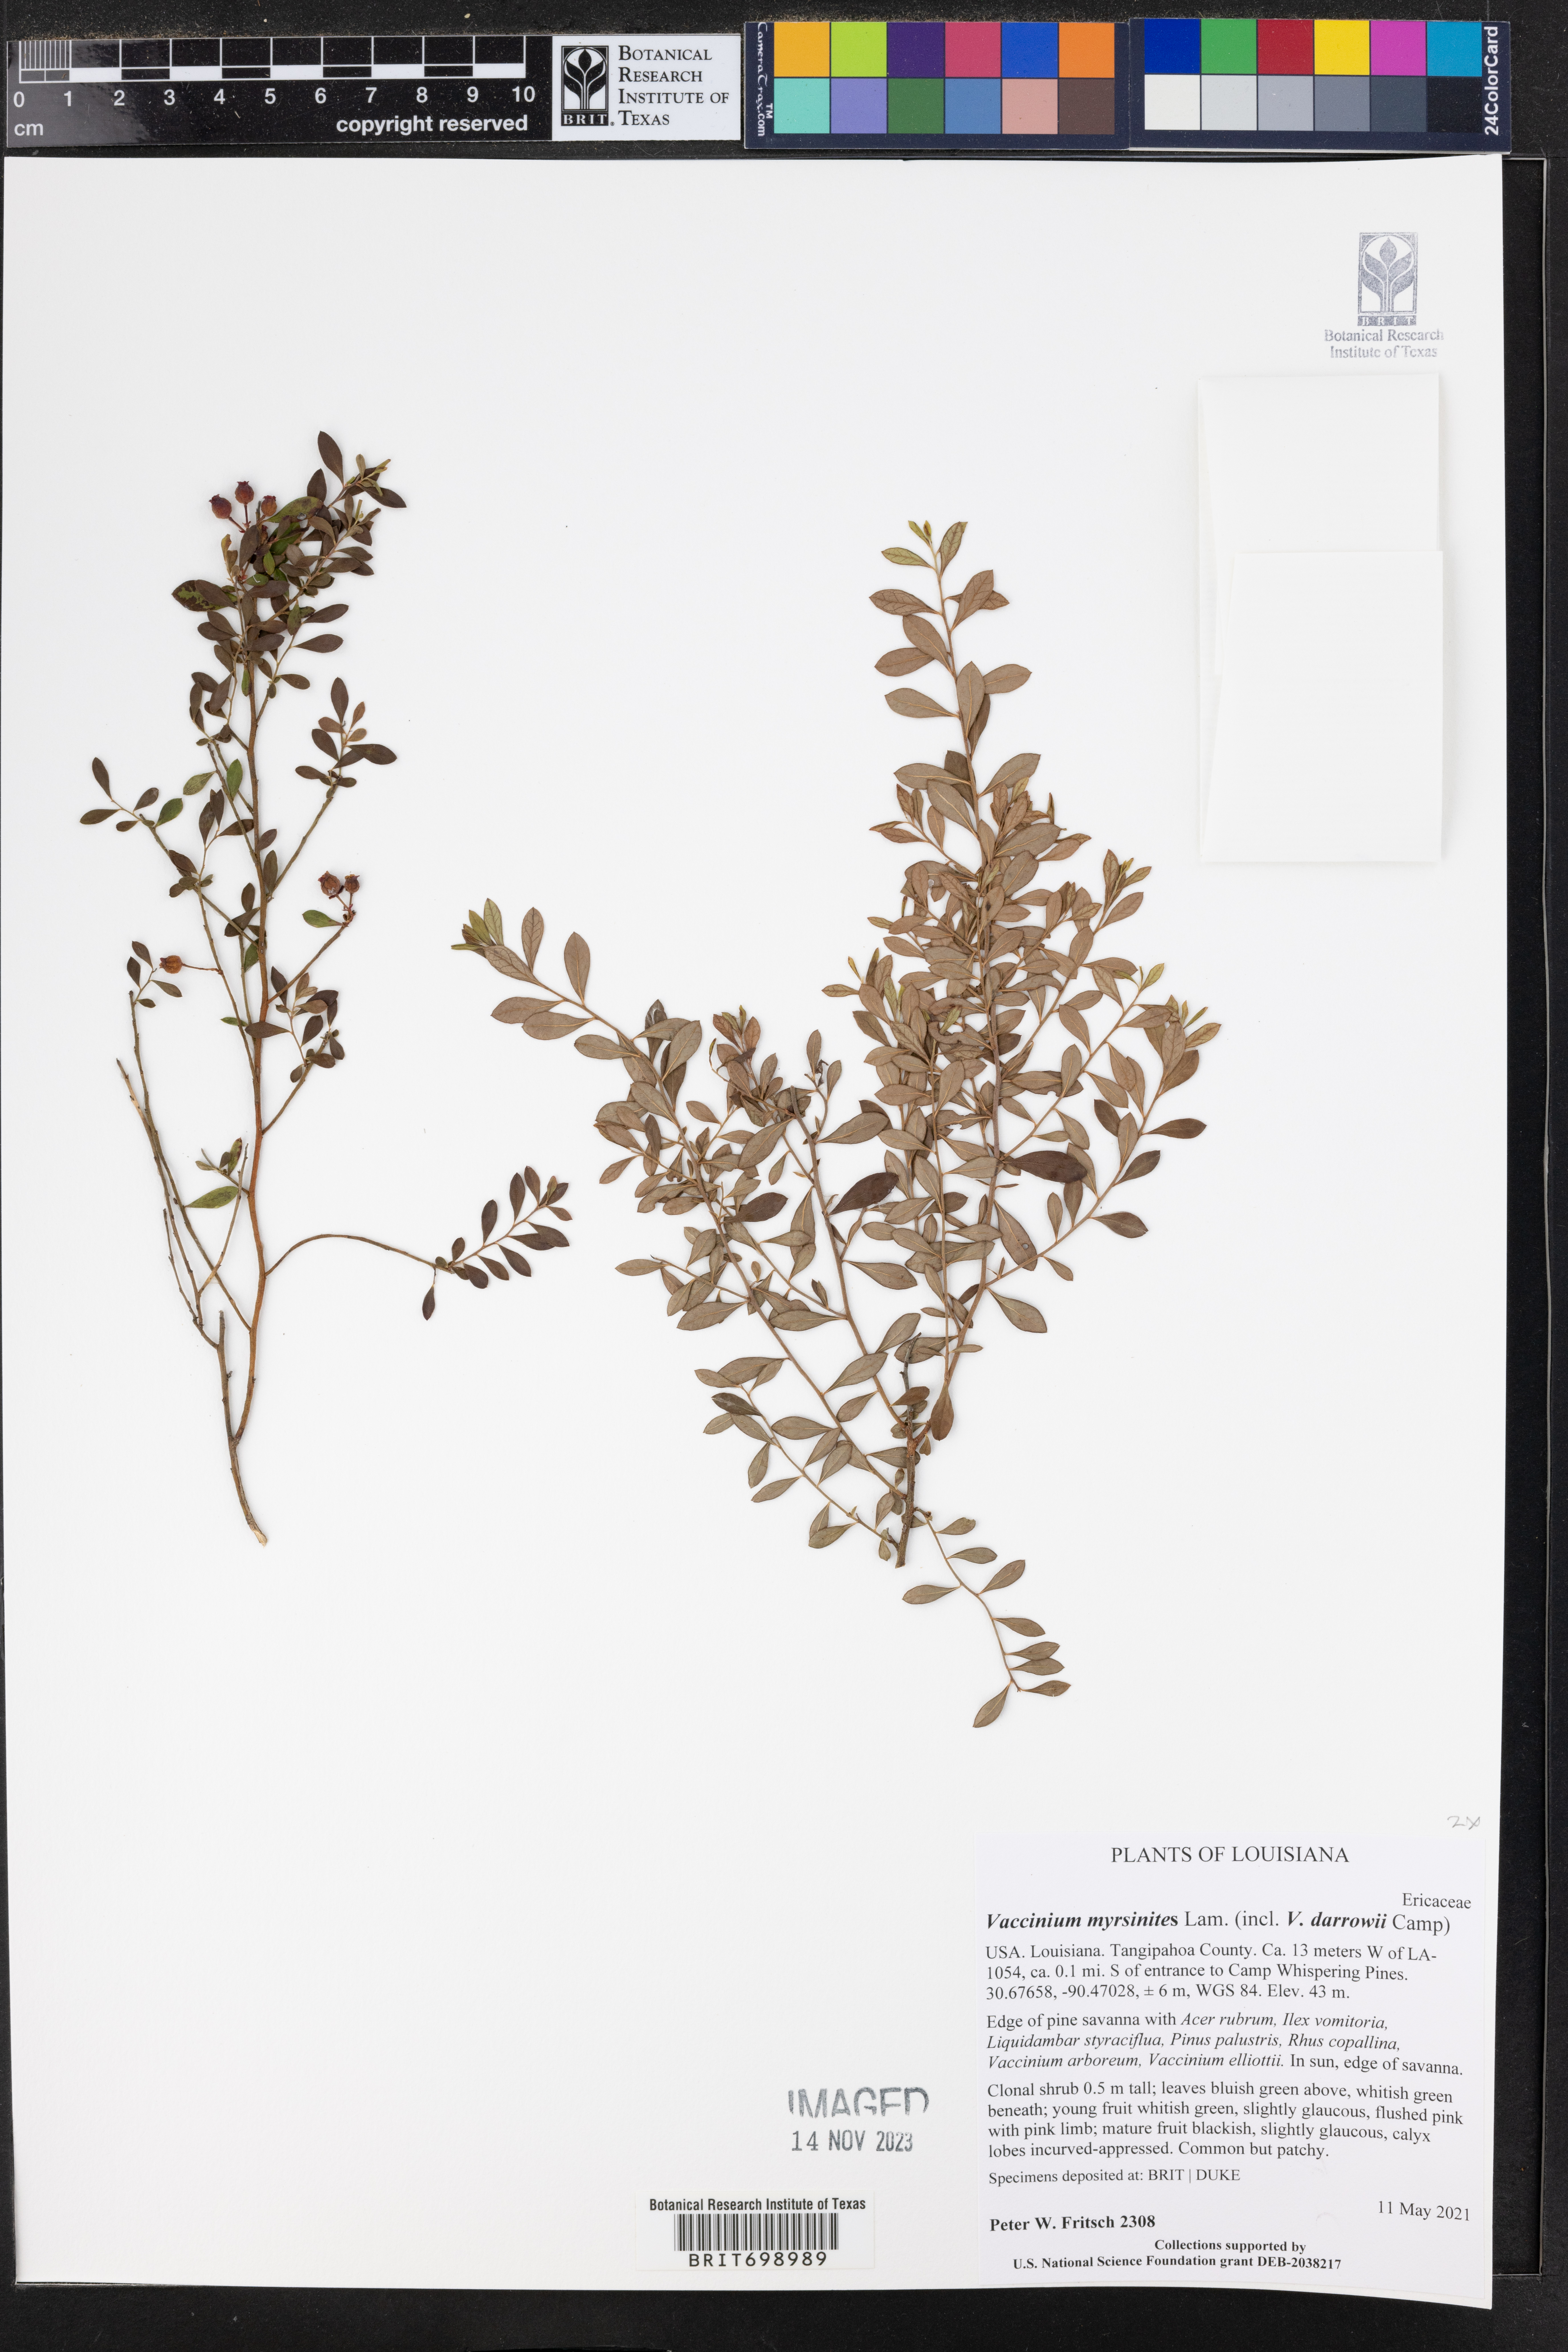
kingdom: Plantae
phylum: Tracheophyta
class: Magnoliopsida
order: Ericales
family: Ericaceae
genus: Vaccinium
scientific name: Vaccinium myrsinites
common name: Evergreen blueberry
